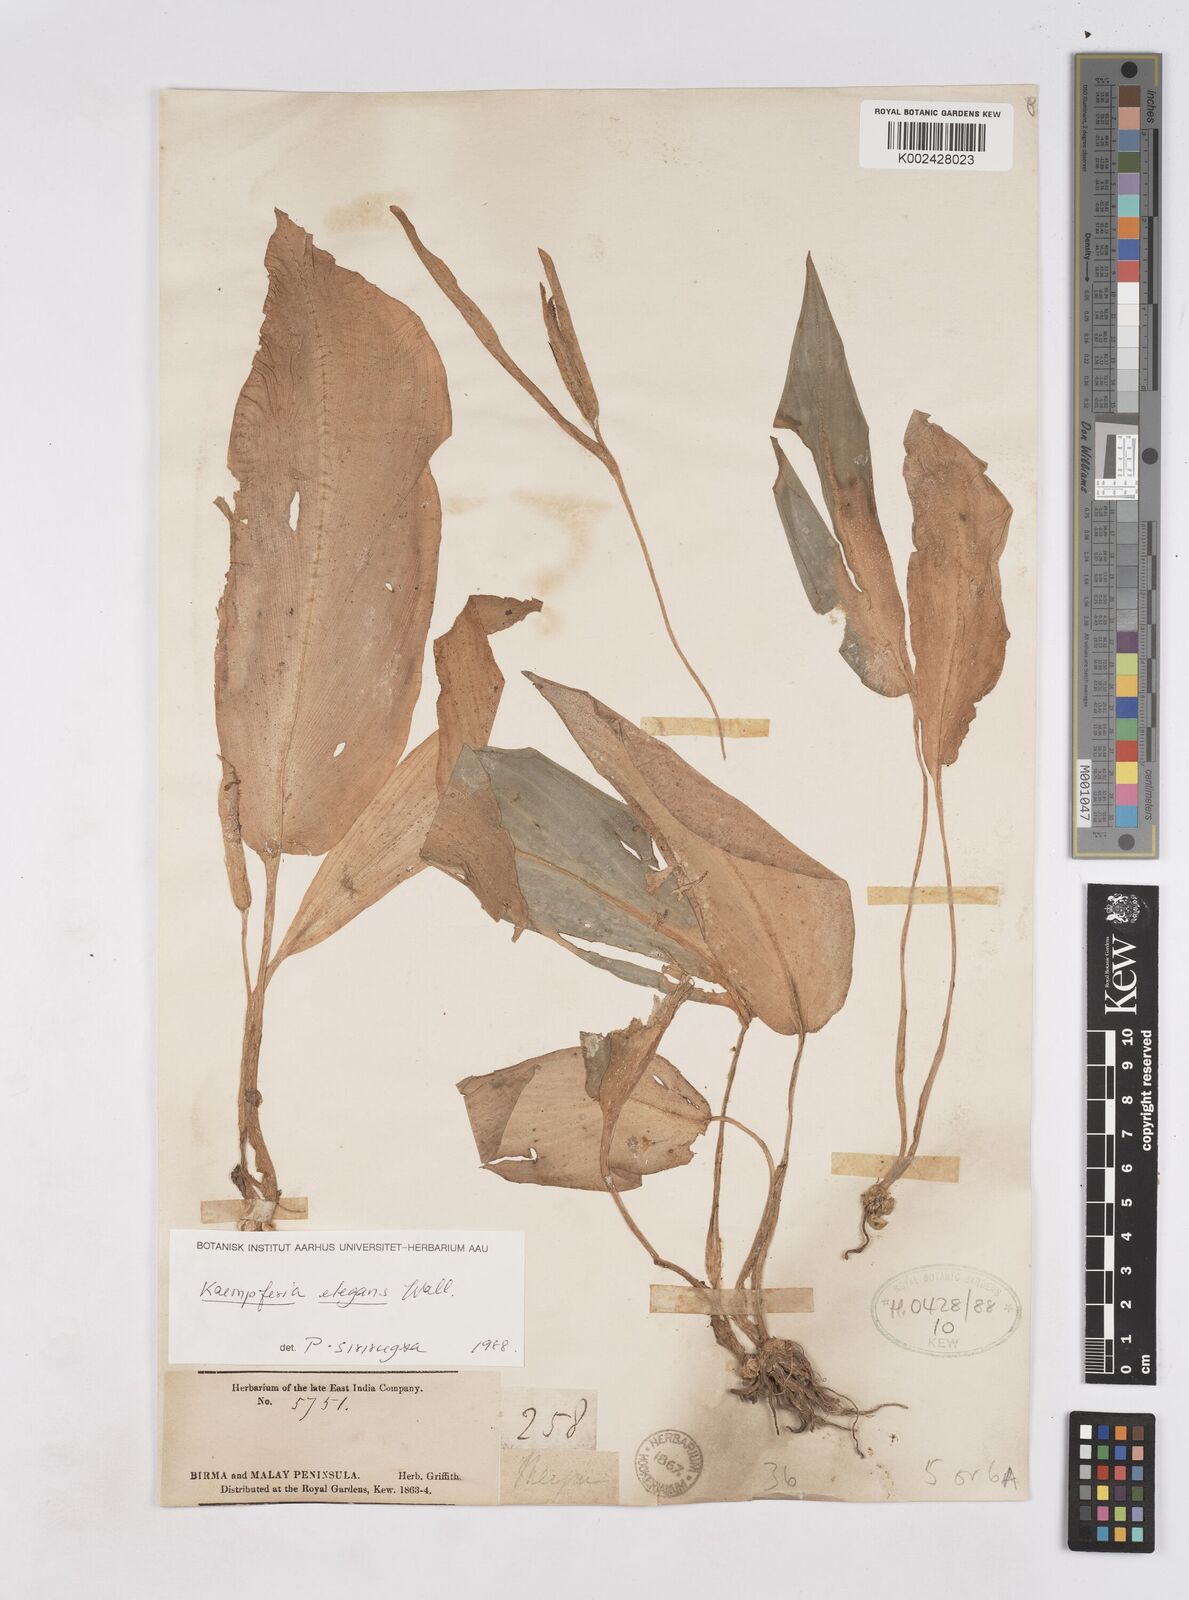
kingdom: Plantae
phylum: Tracheophyta
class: Liliopsida
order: Zingiberales
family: Zingiberaceae
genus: Kaempferia
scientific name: Kaempferia elegans
